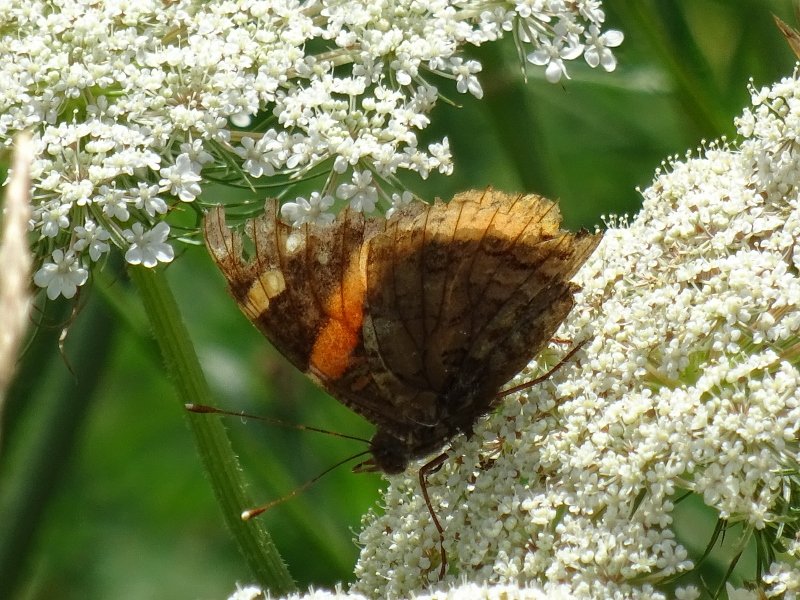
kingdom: Animalia
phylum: Arthropoda
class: Insecta
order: Lepidoptera
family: Nymphalidae
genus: Vanessa
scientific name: Vanessa atalanta
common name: Red Admiral
